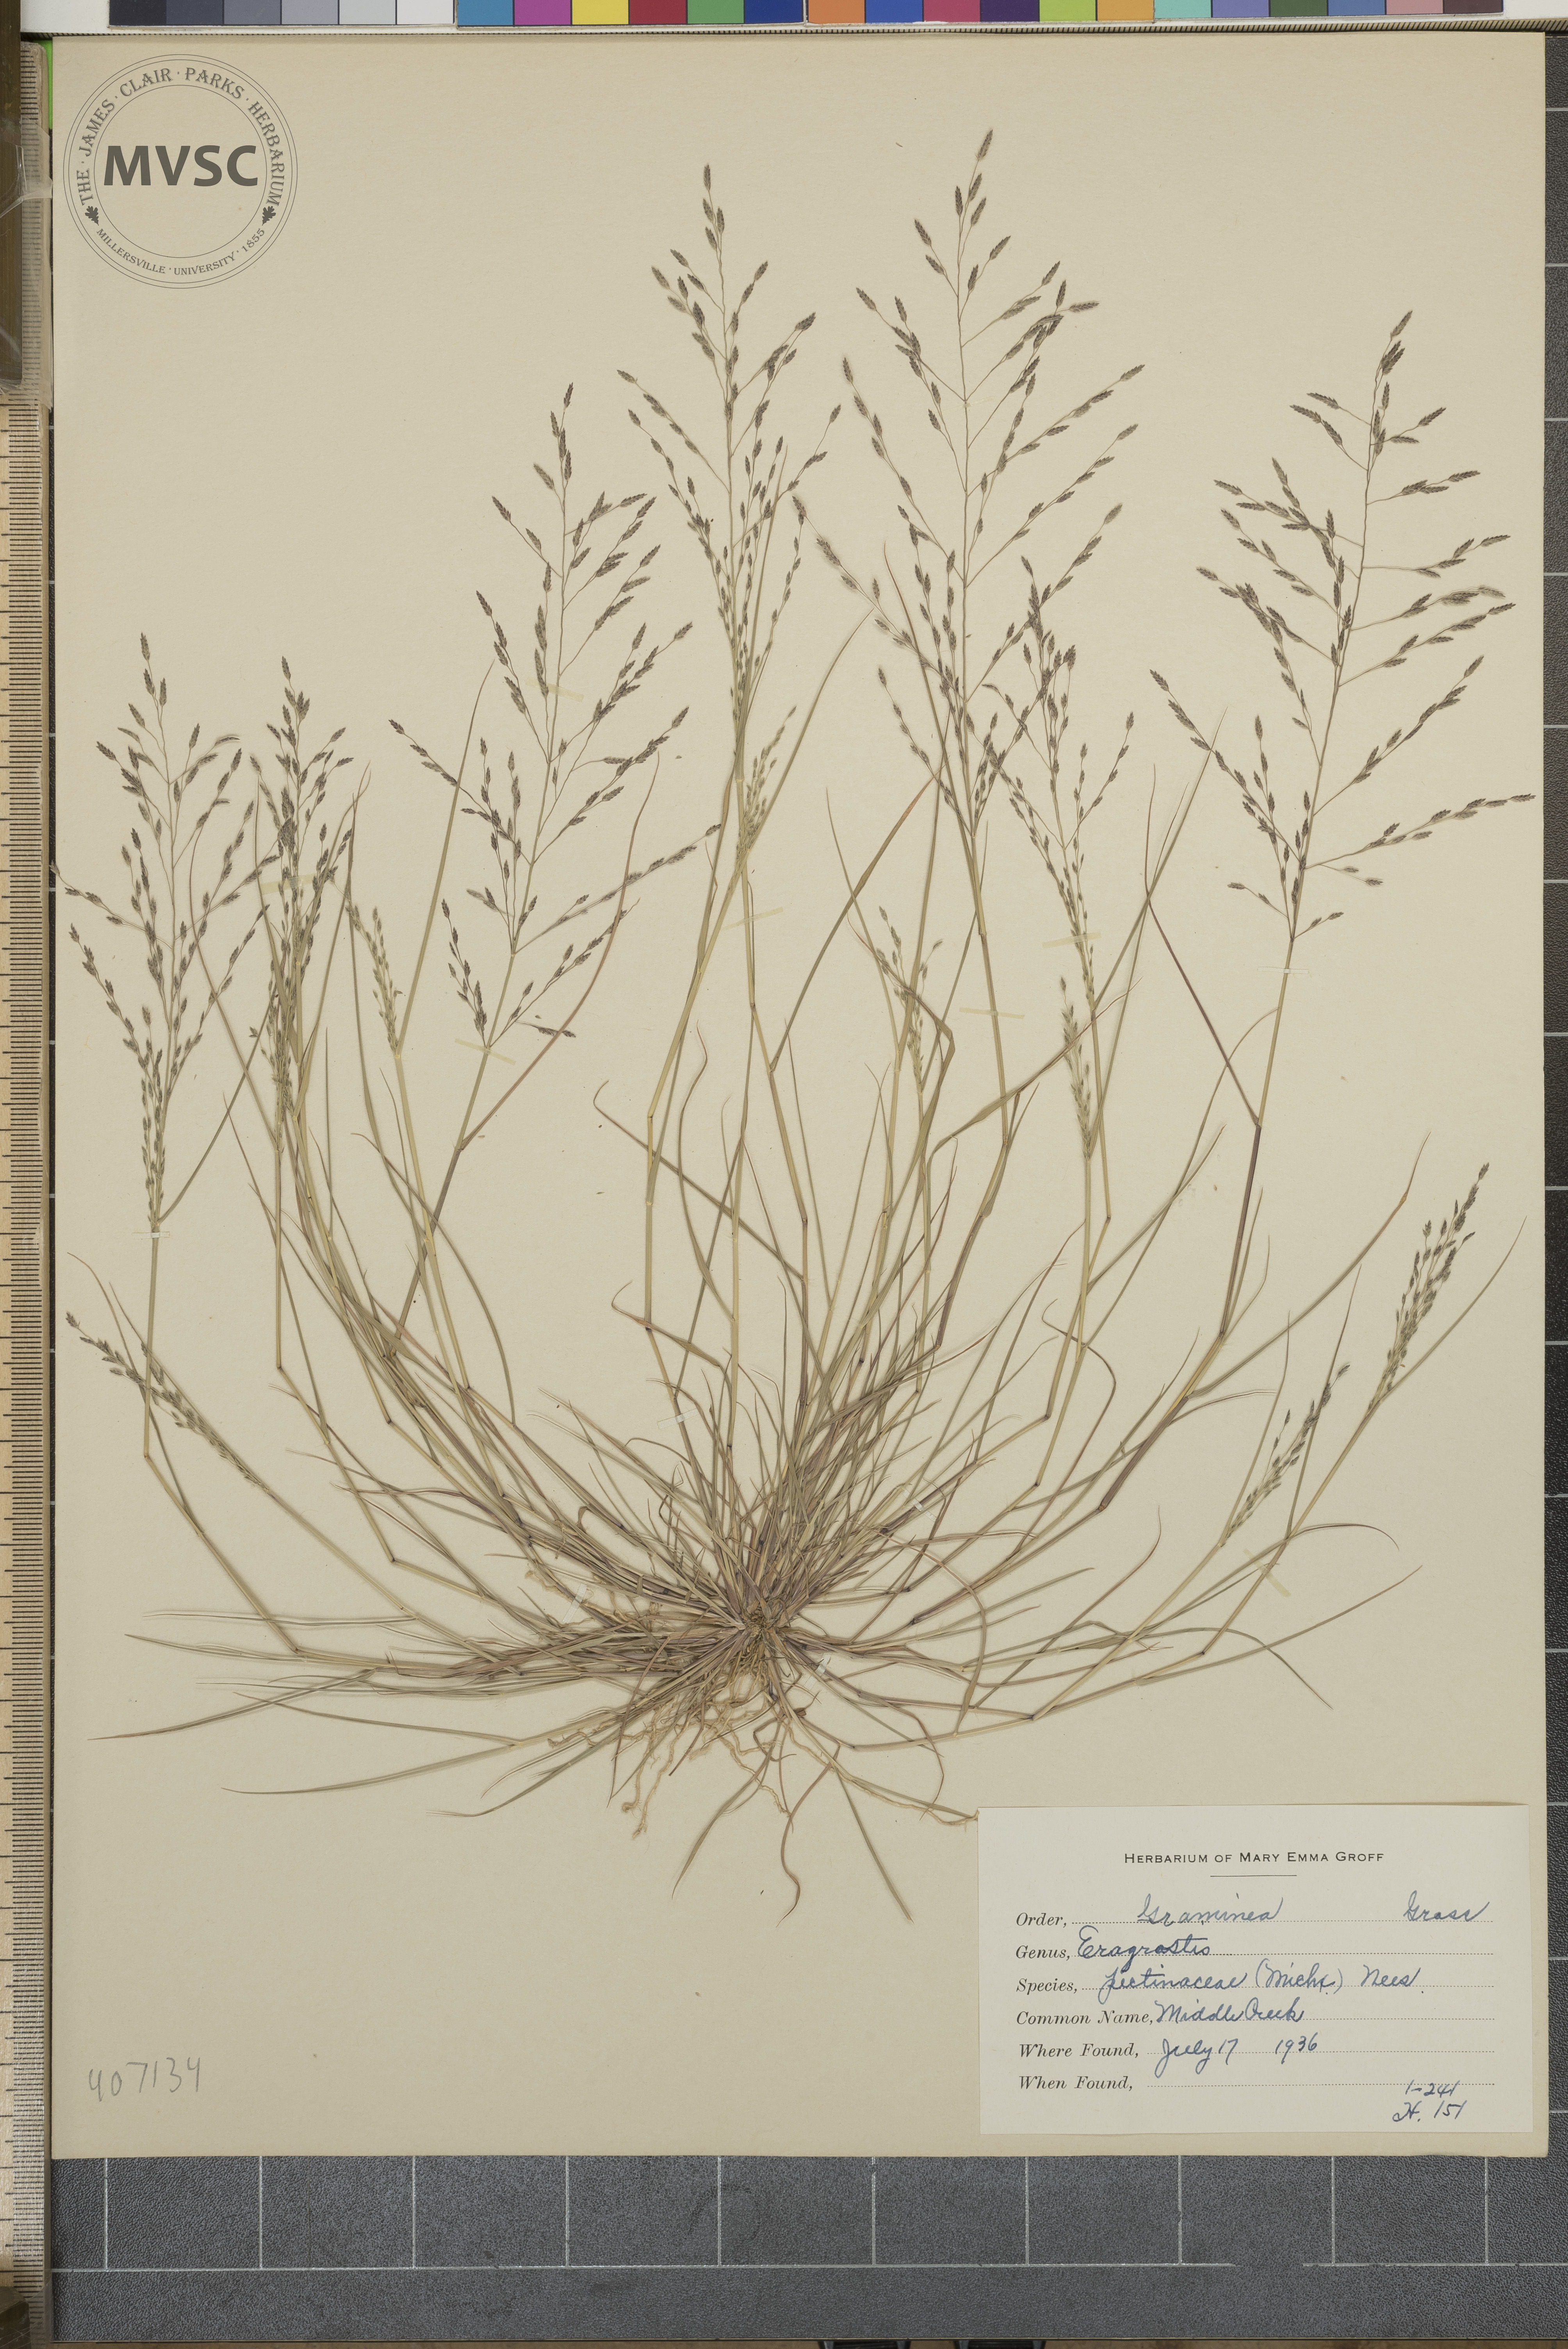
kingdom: Plantae
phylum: Tracheophyta
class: Liliopsida
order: Poales
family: Poaceae
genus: Eragrostis
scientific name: Eragrostis pectinacea
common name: Tufted lovegrass
